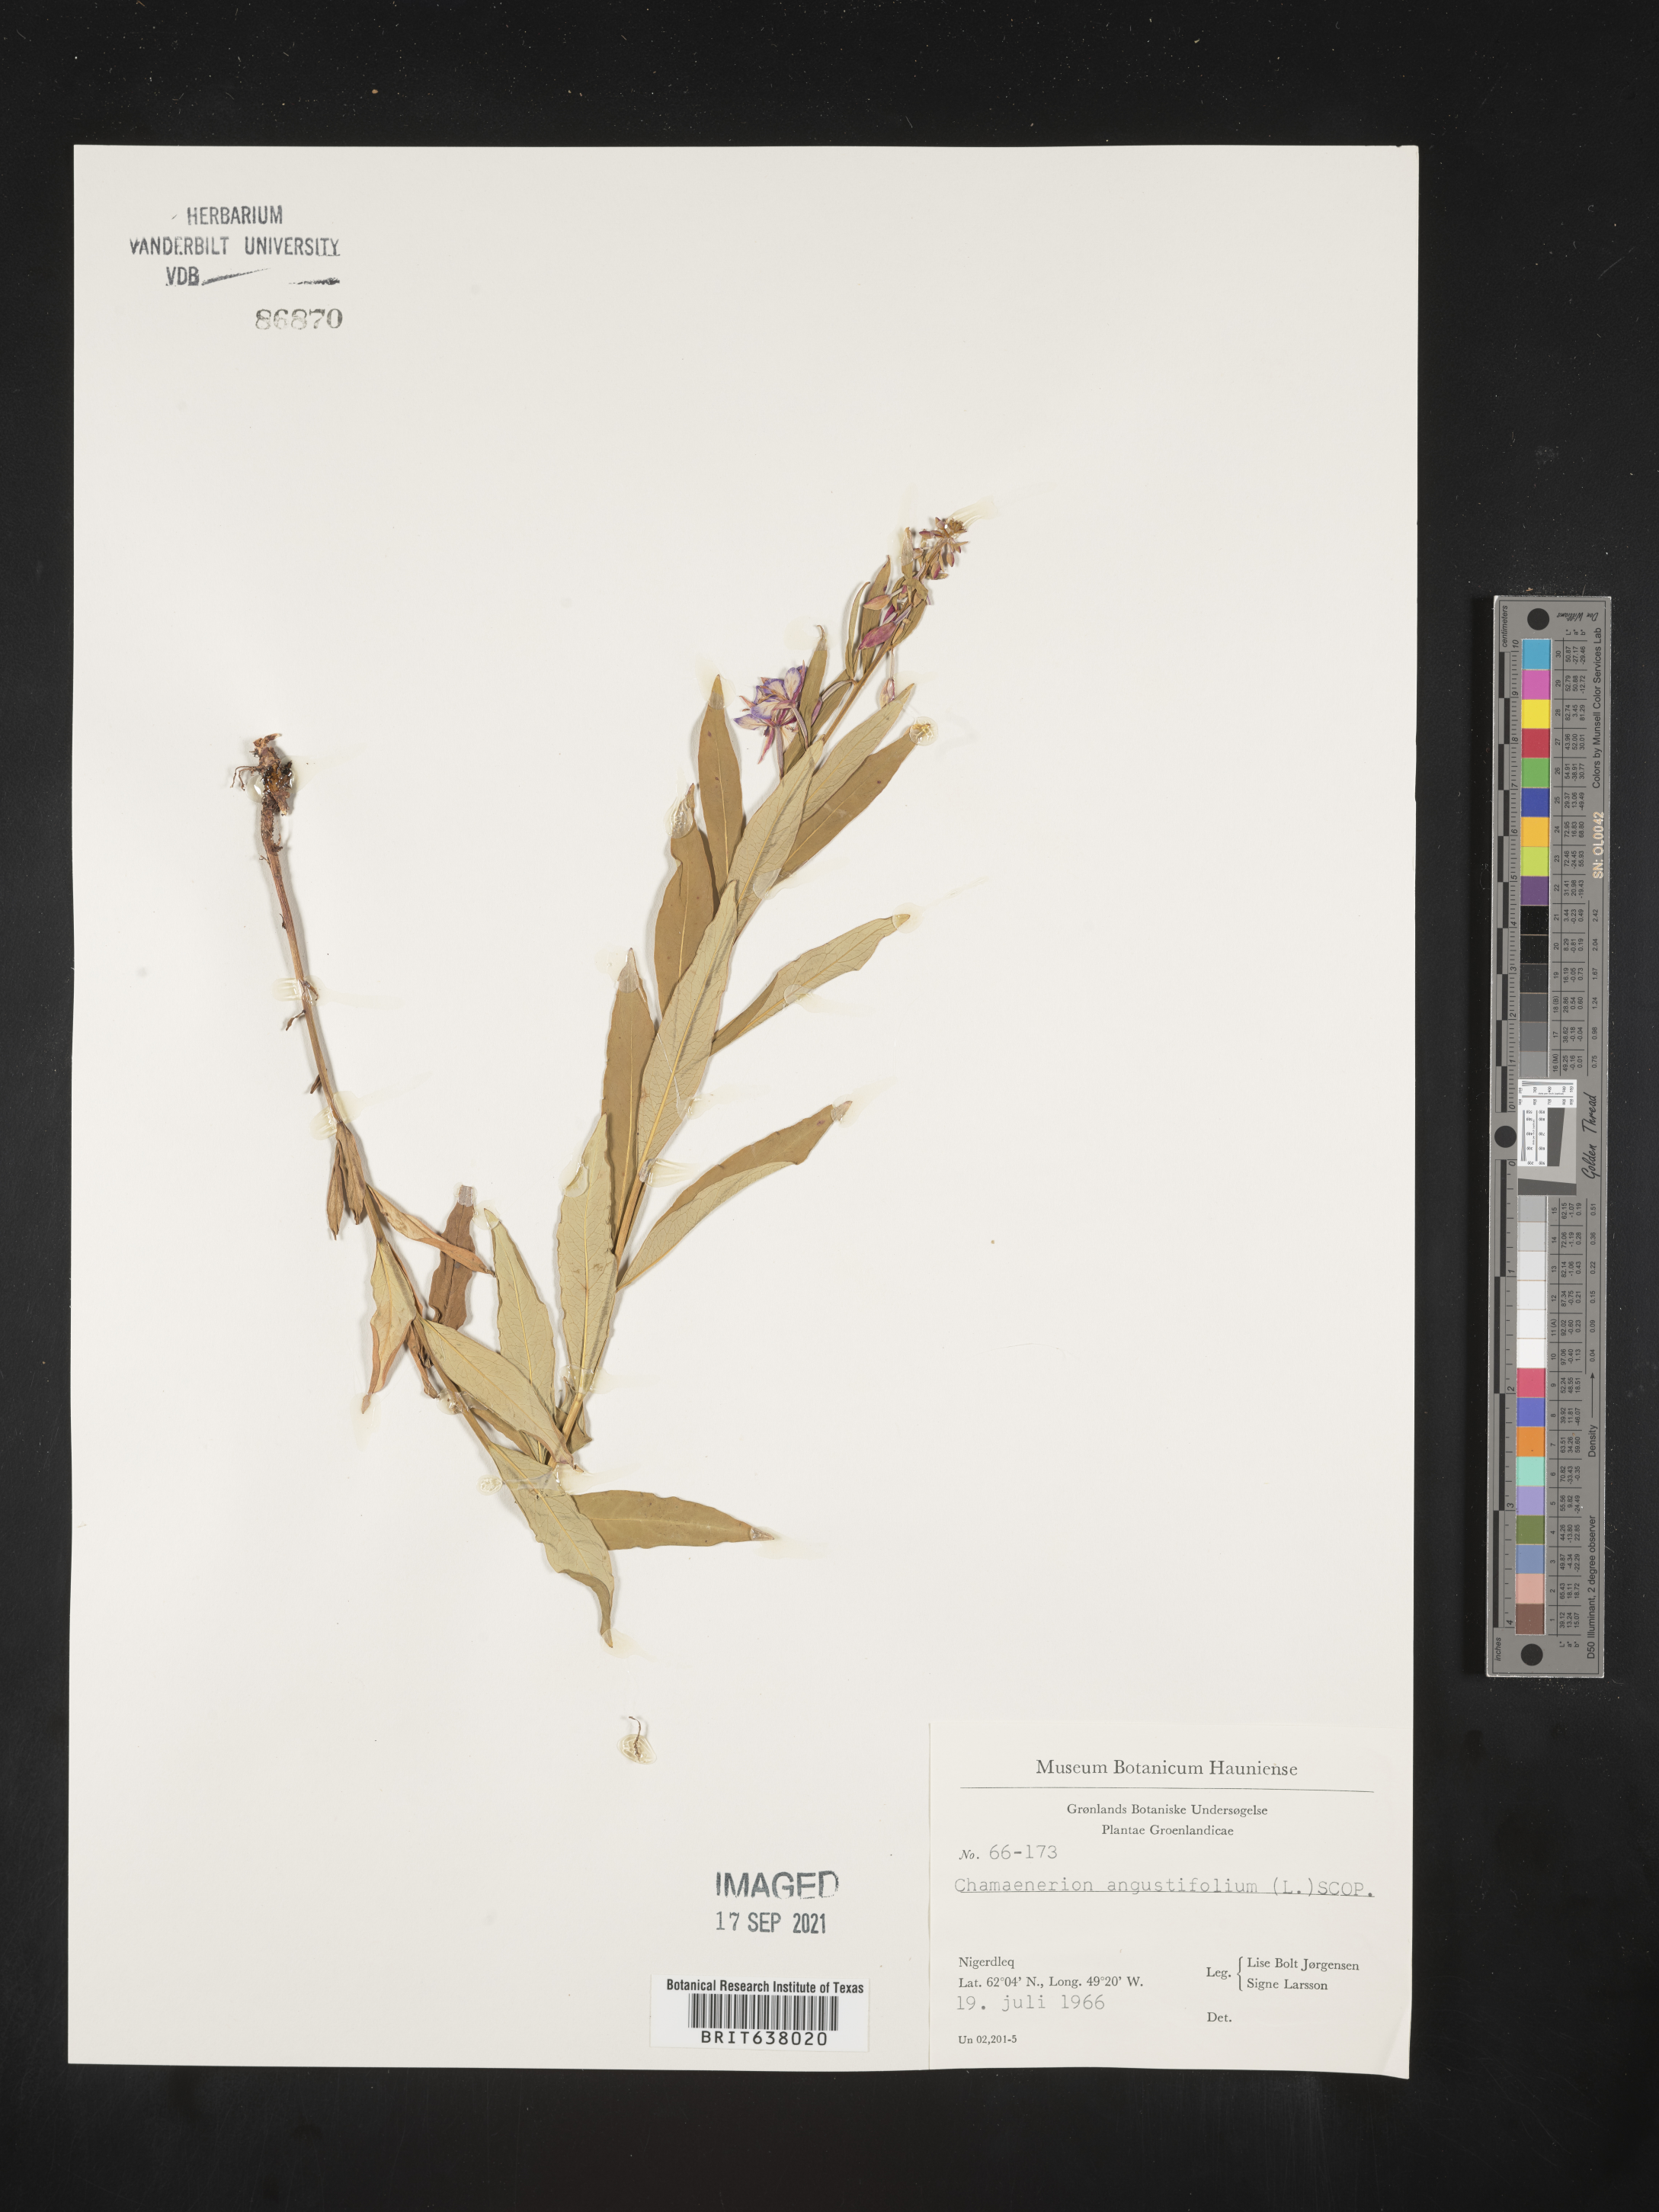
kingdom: Plantae
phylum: Tracheophyta
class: Magnoliopsida
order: Myrtales
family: Onagraceae
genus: Chamaenerion
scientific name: Chamaenerion
